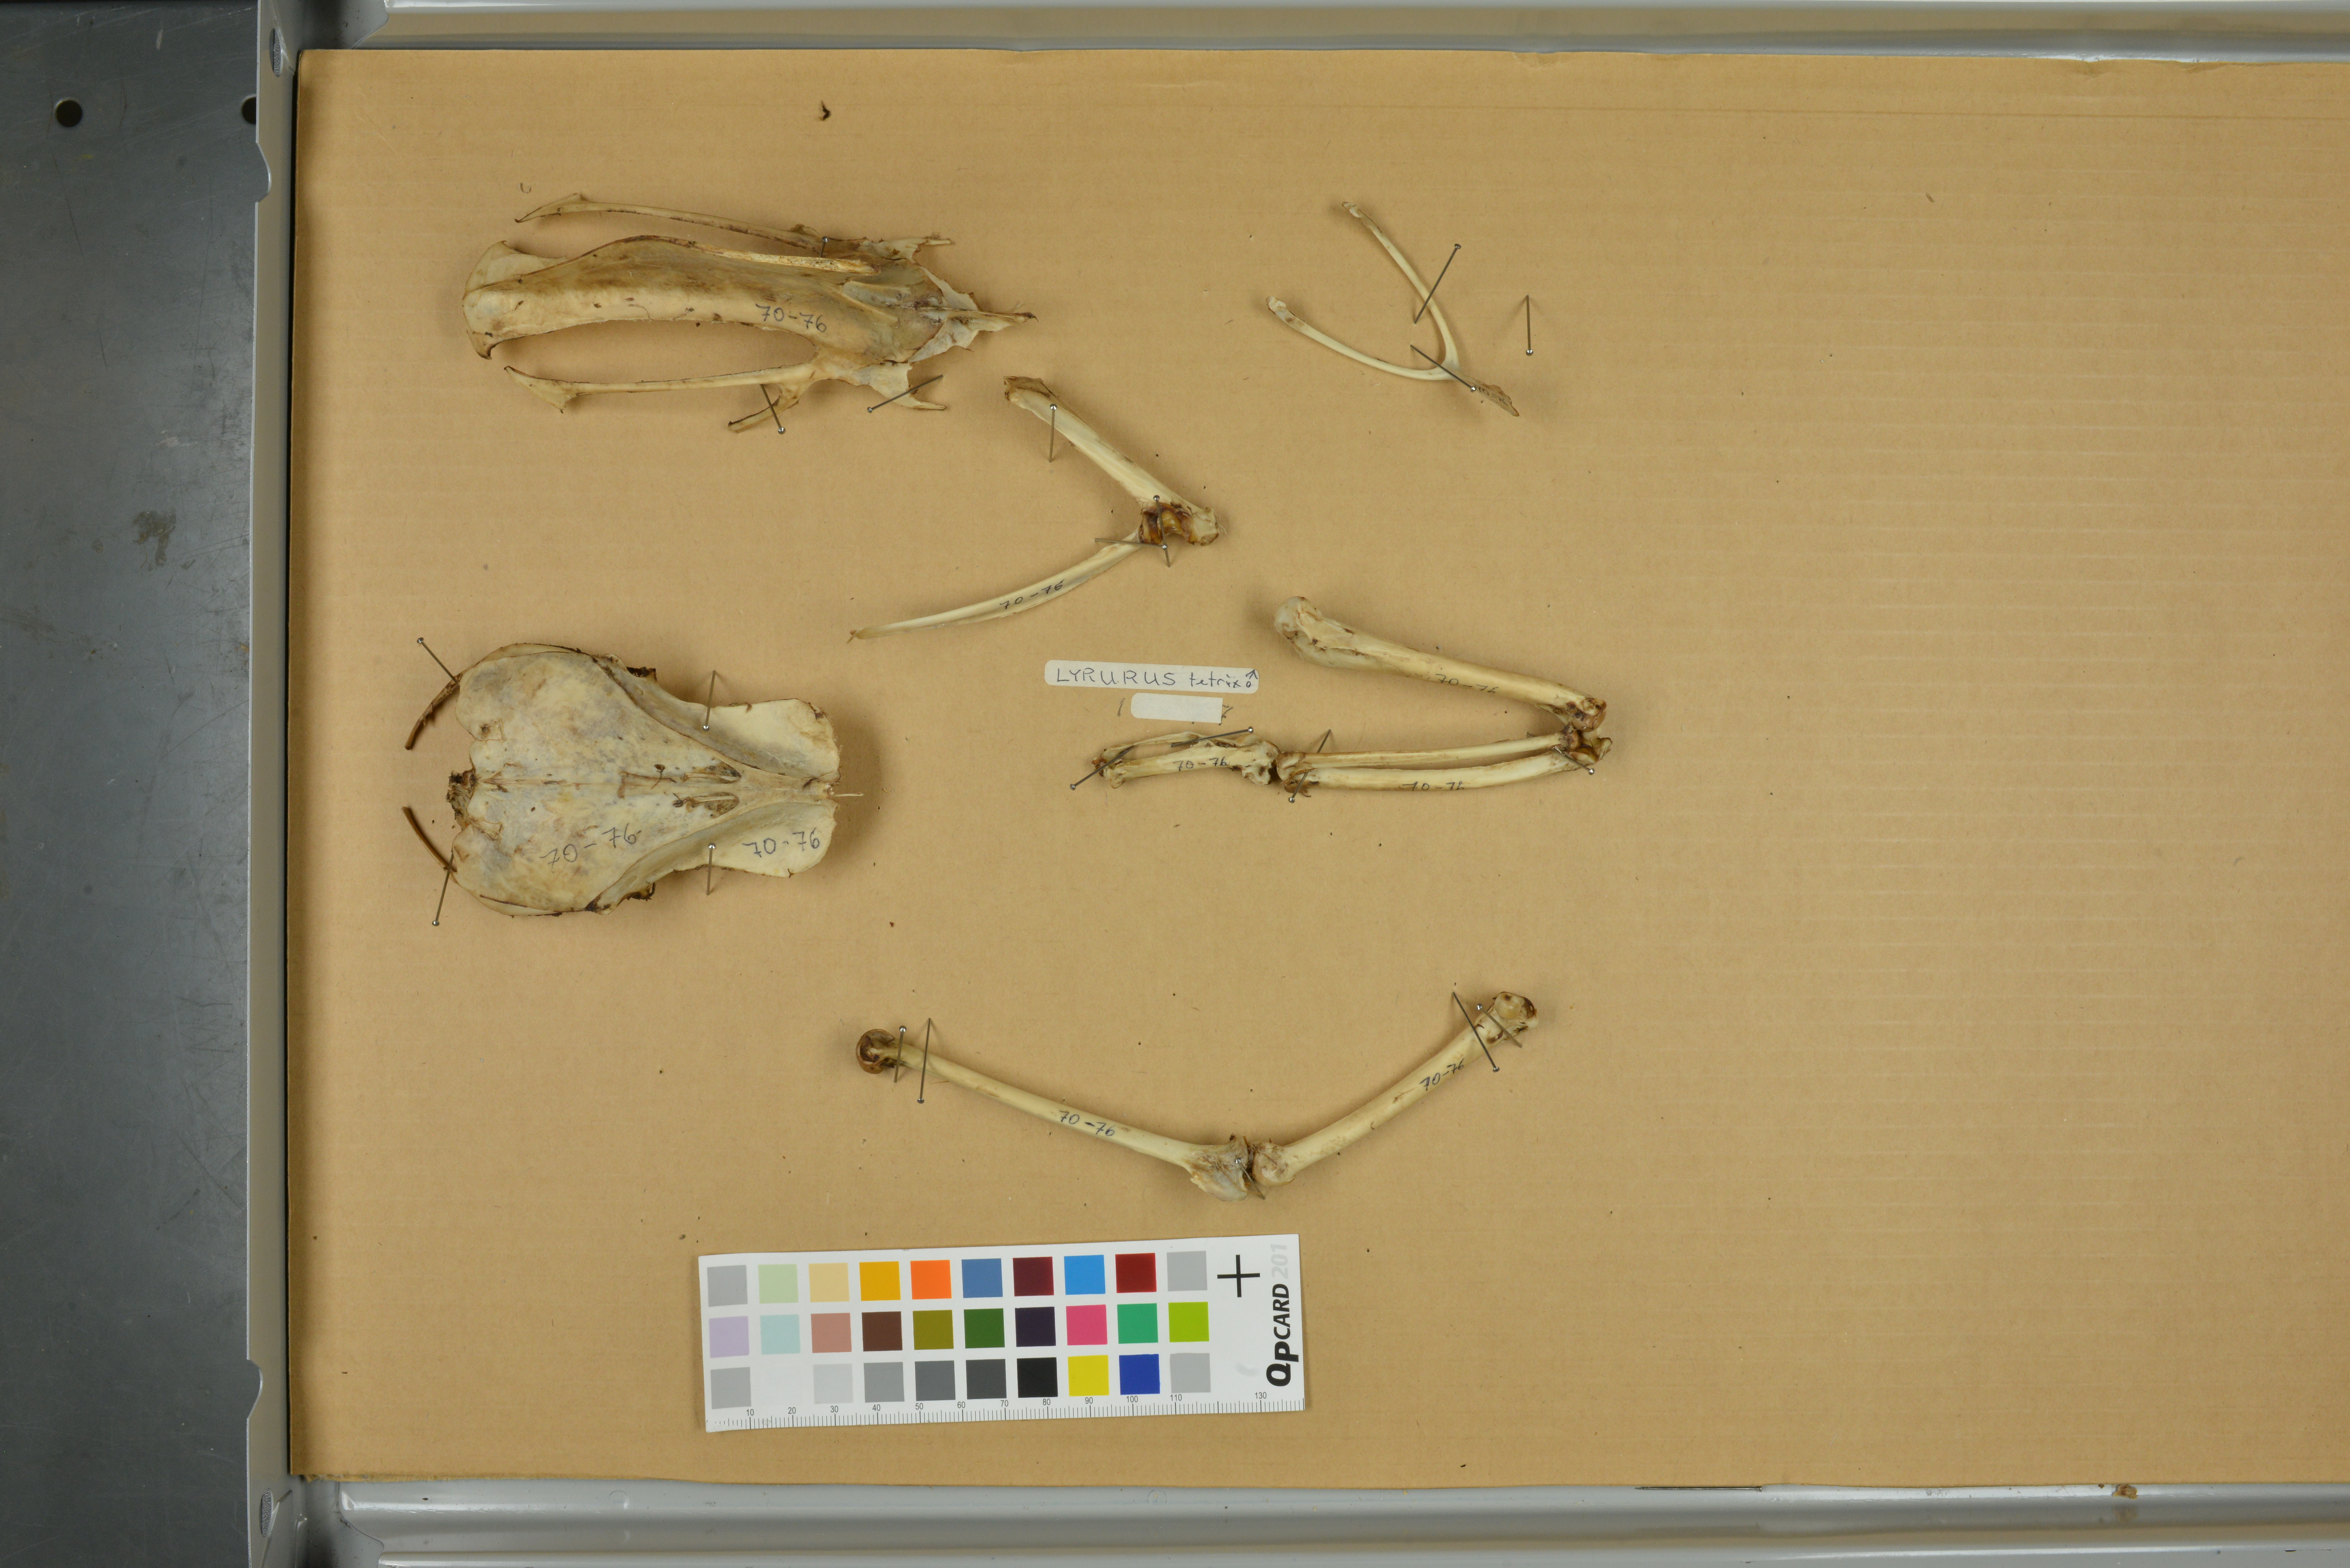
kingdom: Animalia
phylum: Chordata
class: Aves
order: Galliformes
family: Phasianidae
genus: Lyrurus
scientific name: Lyrurus tetrix
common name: Black grouse
